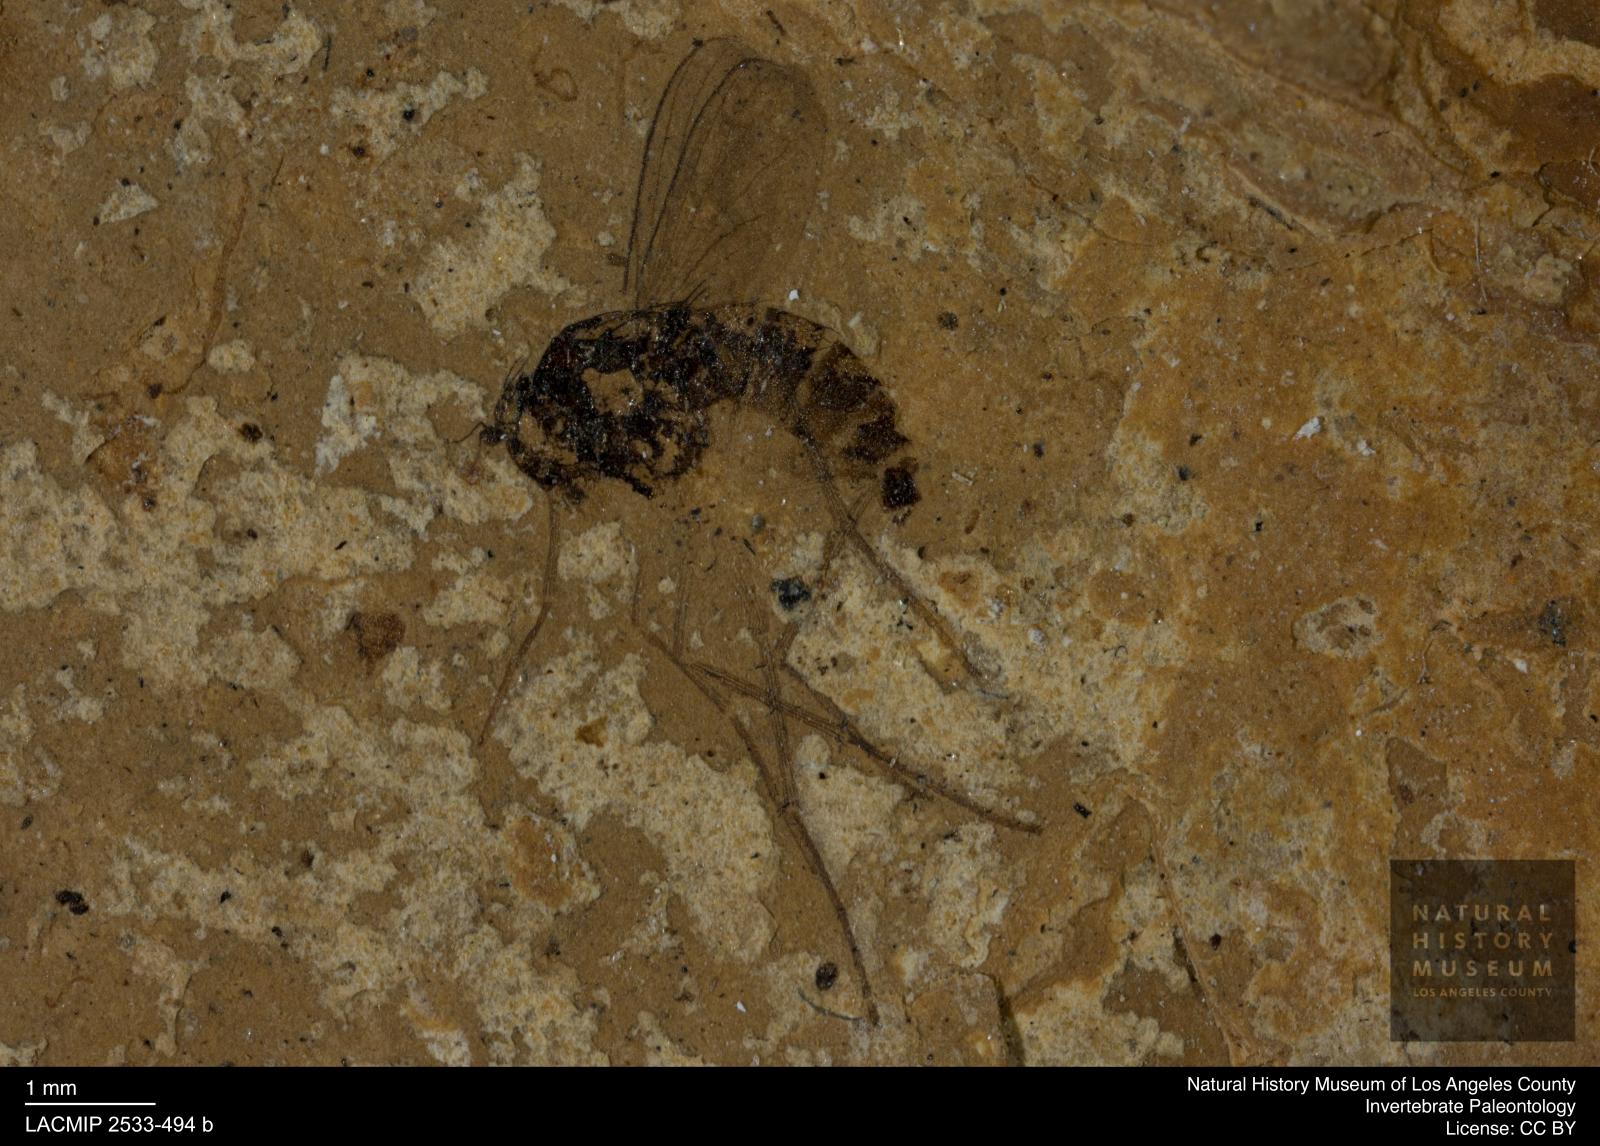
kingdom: Animalia
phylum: Arthropoda
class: Insecta
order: Diptera
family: Dolichopodidae
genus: Sciapus
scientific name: Sciapus rottensis
